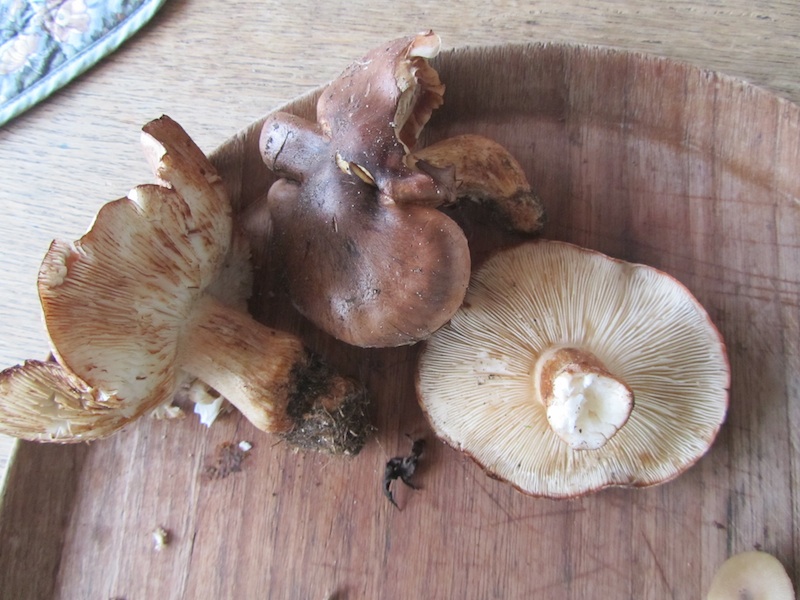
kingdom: Fungi
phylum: Basidiomycota
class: Agaricomycetes
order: Agaricales
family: Tricholomataceae
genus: Tricholoma
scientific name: Tricholoma populinum
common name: poppel-ridderhat
